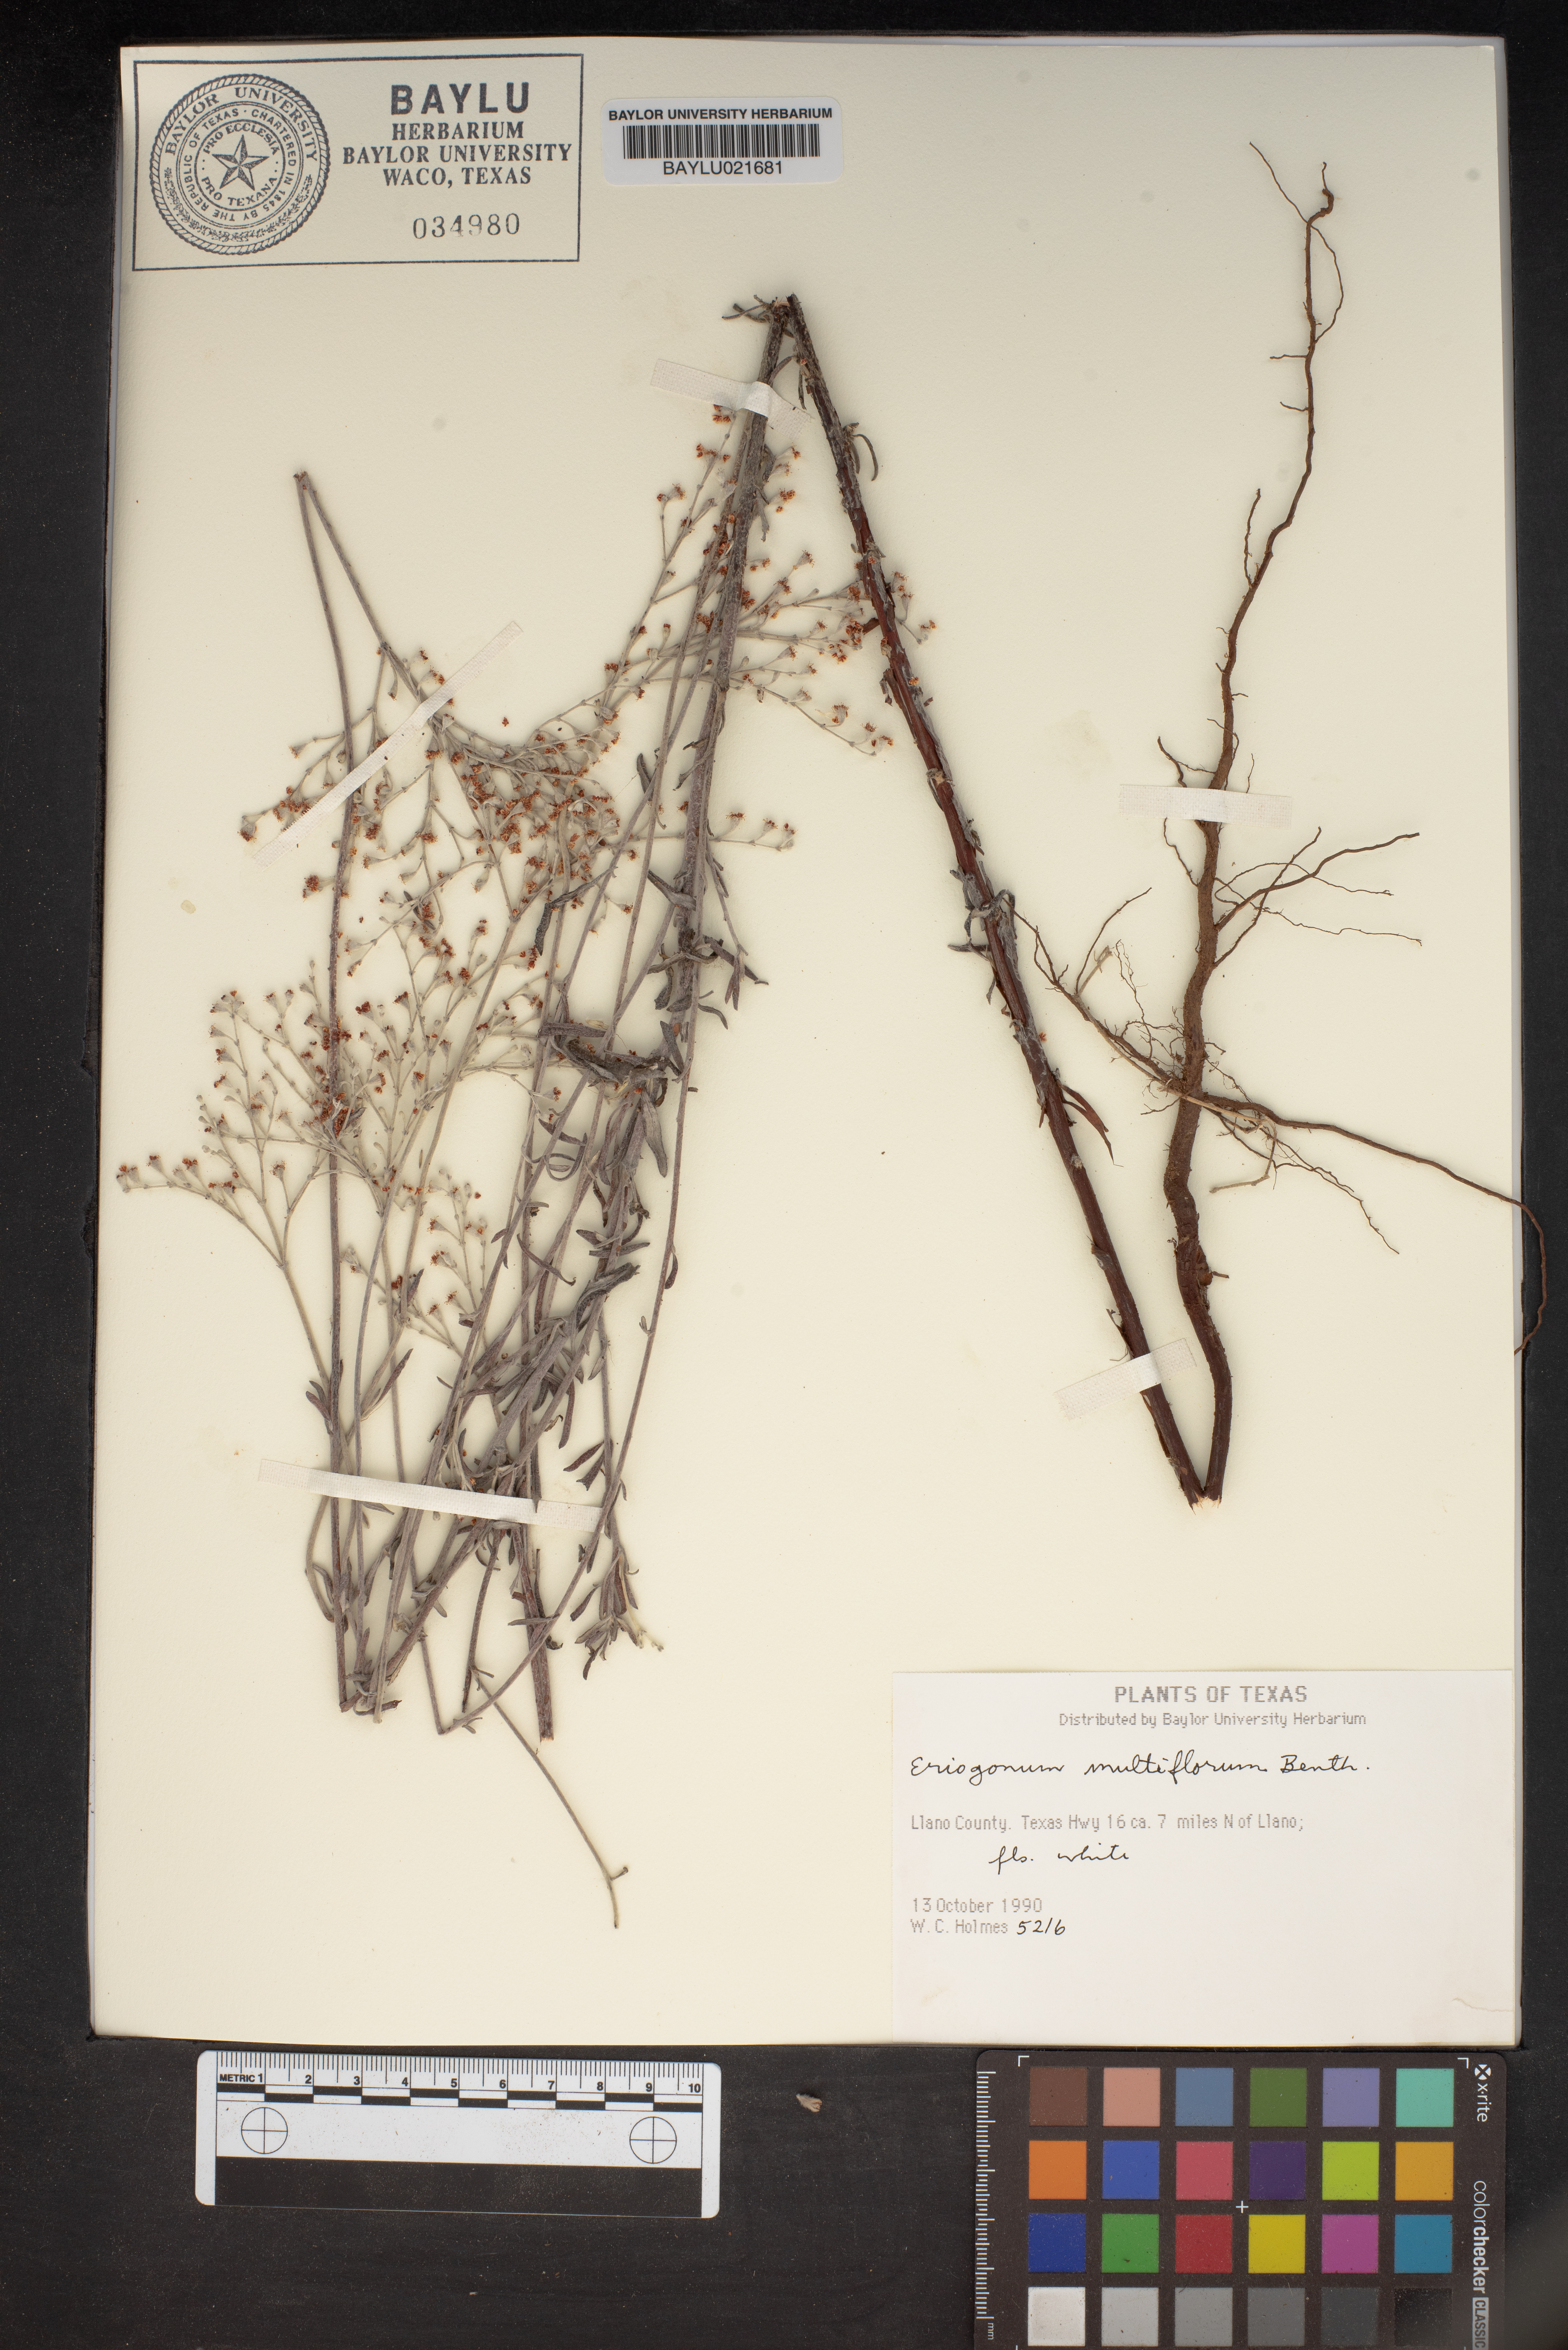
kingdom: Plantae
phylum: Tracheophyta
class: Magnoliopsida
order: Caryophyllales
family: Polygonaceae
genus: Eriogonum
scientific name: Eriogonum multiflorum
